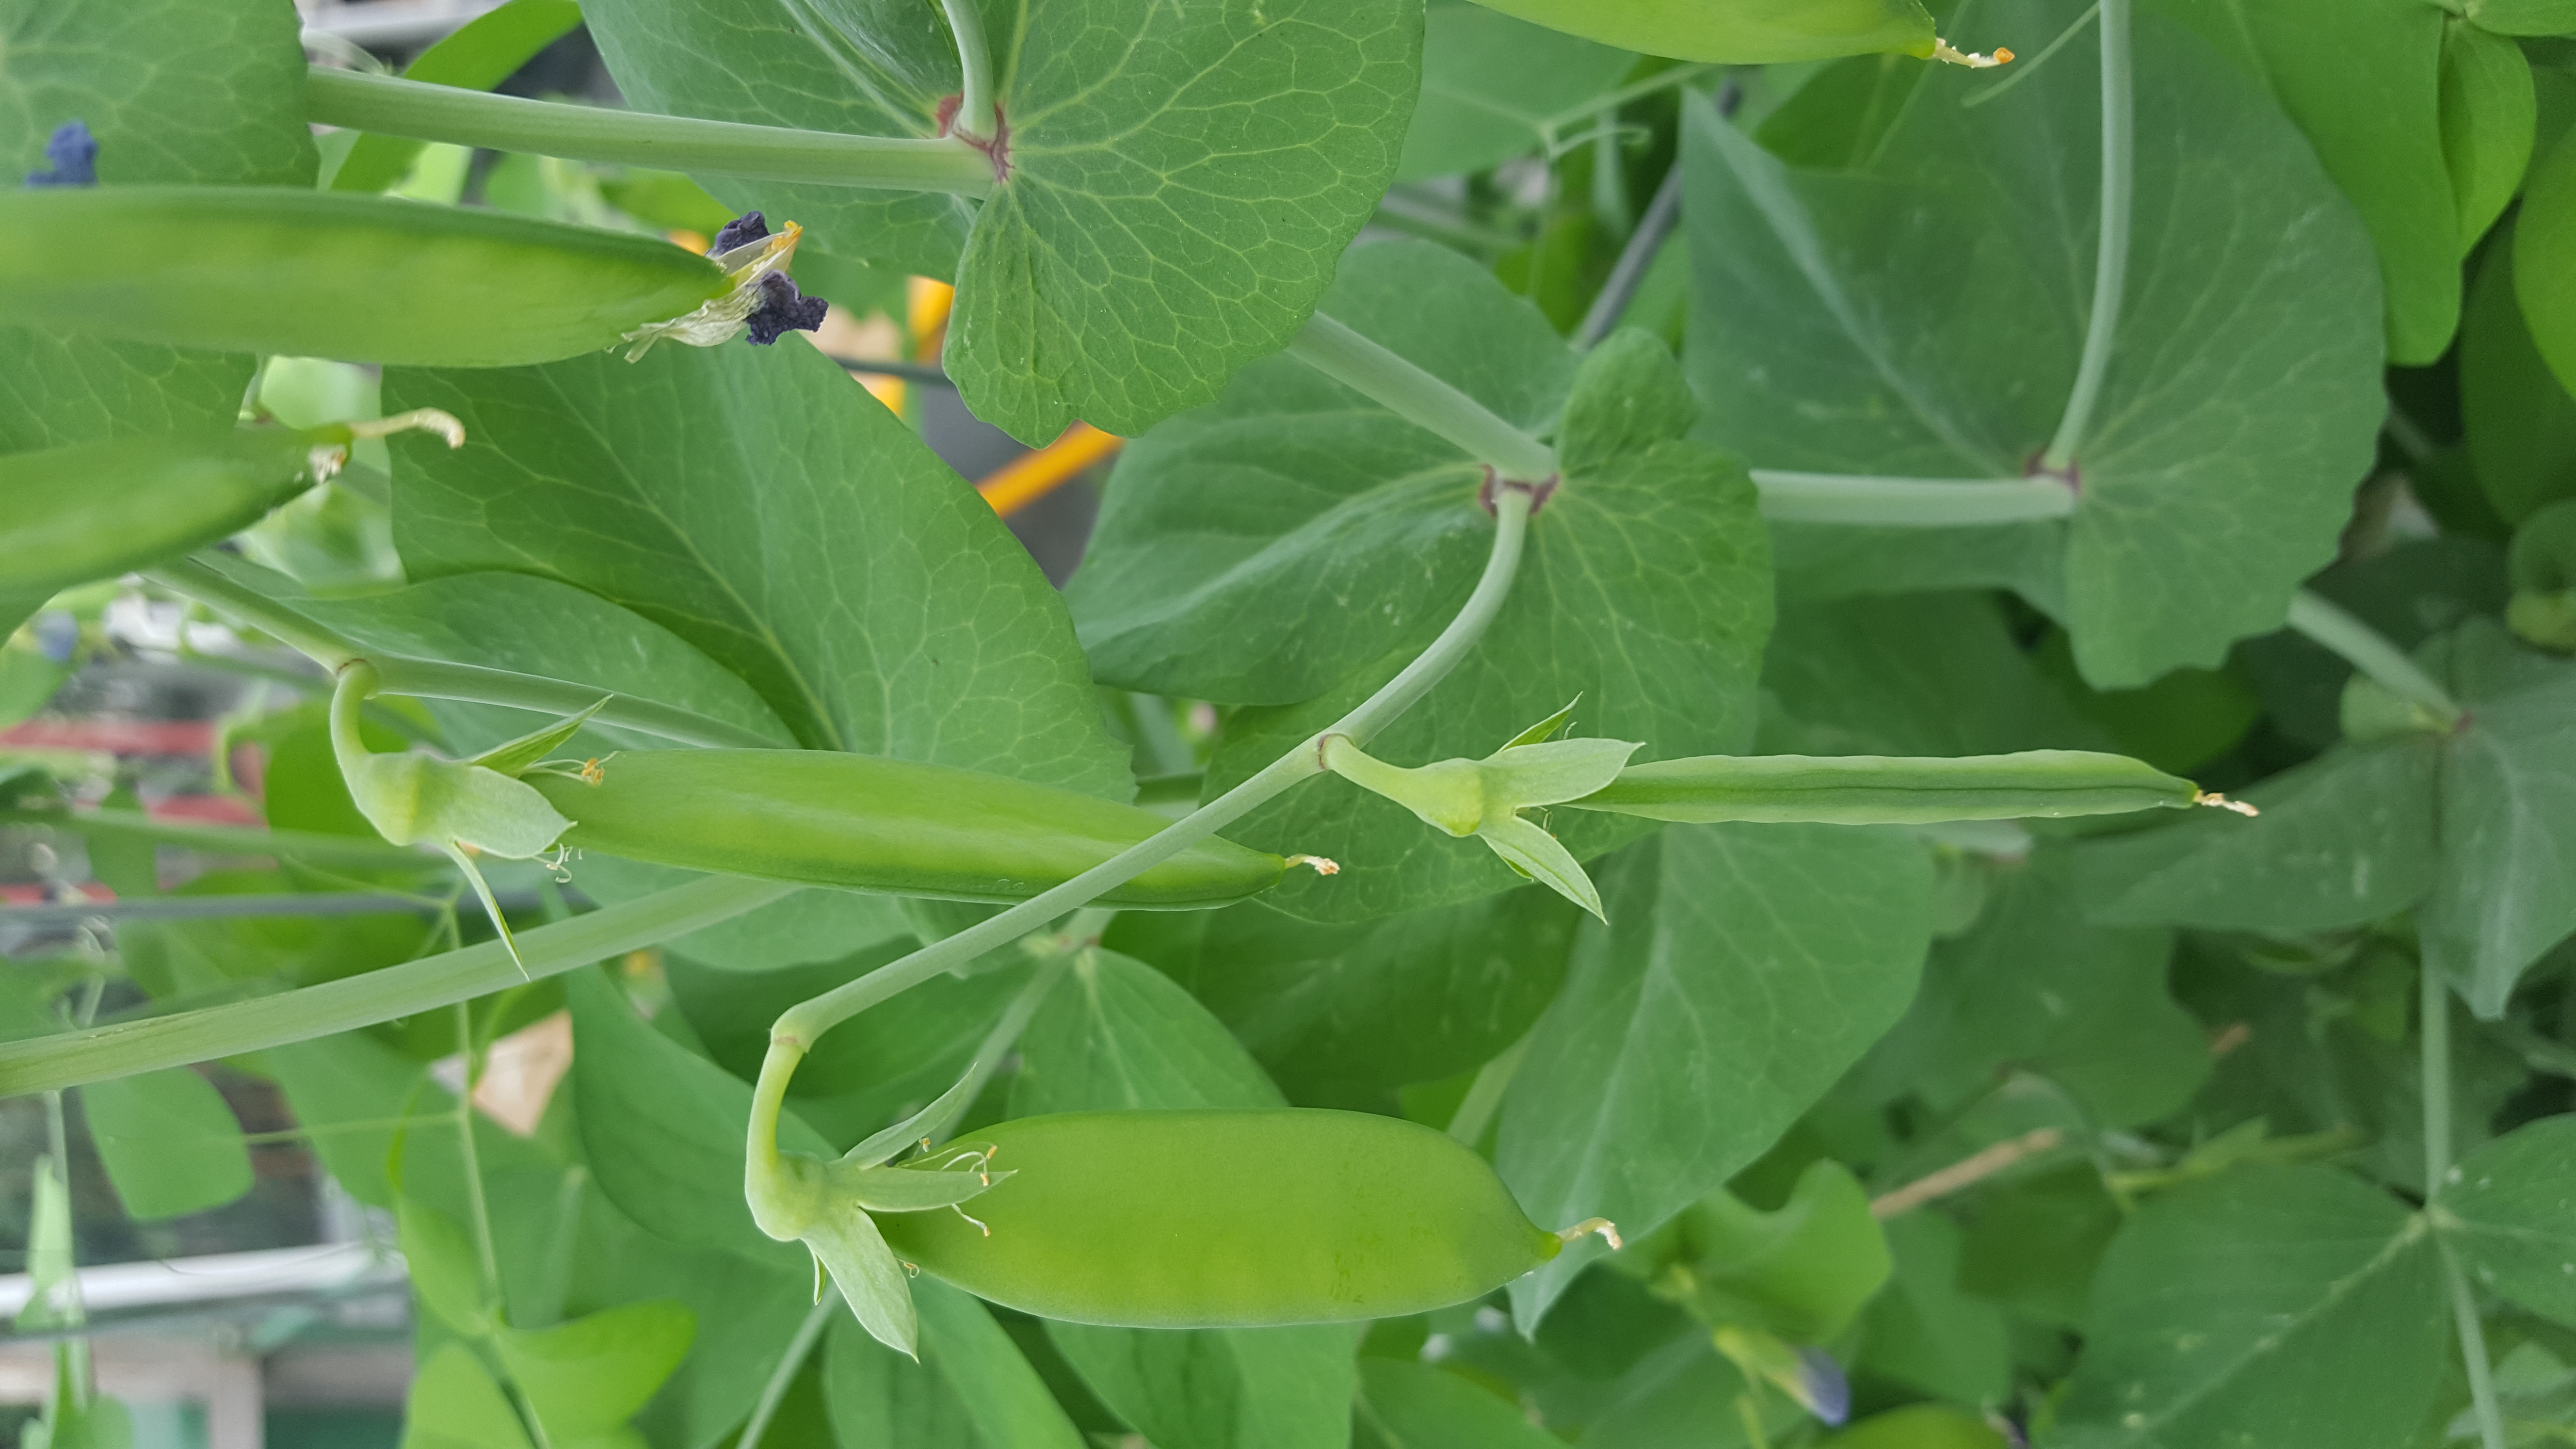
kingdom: Plantae
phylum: Tracheophyta
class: Magnoliopsida
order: Fabales
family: Fabaceae
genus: Lathyrus
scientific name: Lathyrus oleraceus
